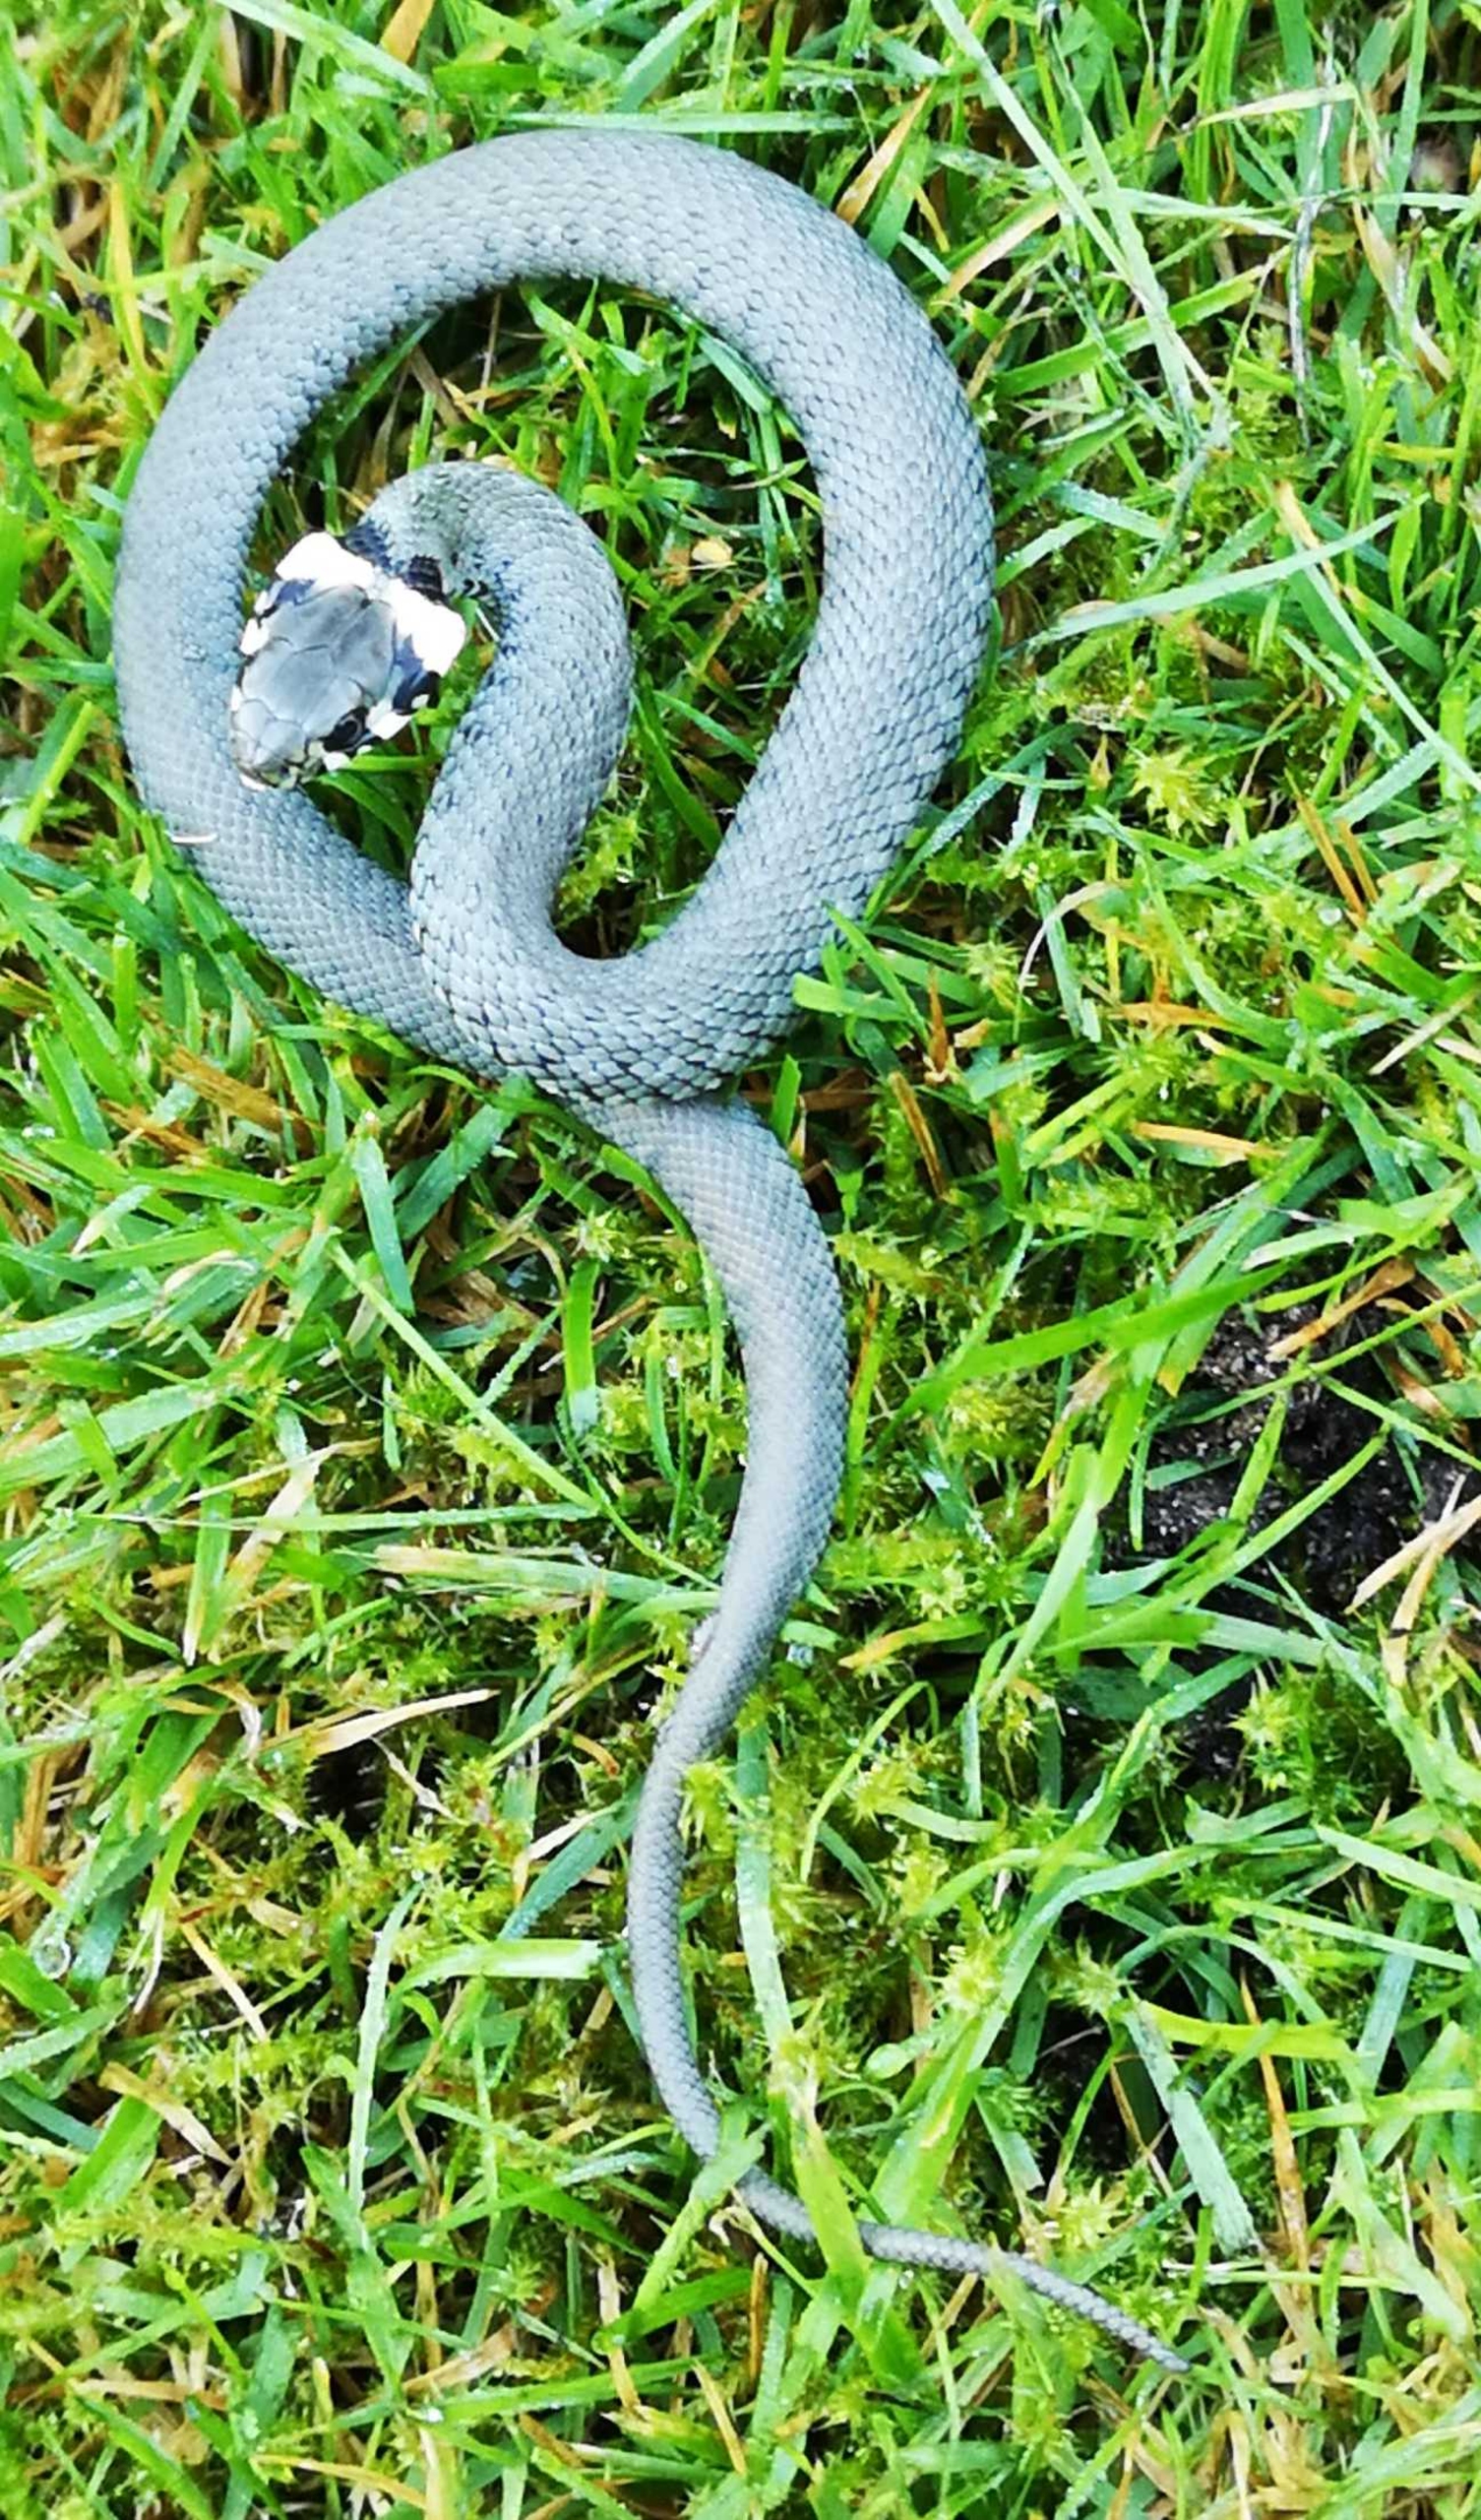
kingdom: Animalia
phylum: Chordata
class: Squamata
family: Colubridae
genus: Natrix
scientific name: Natrix natrix
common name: Snog
